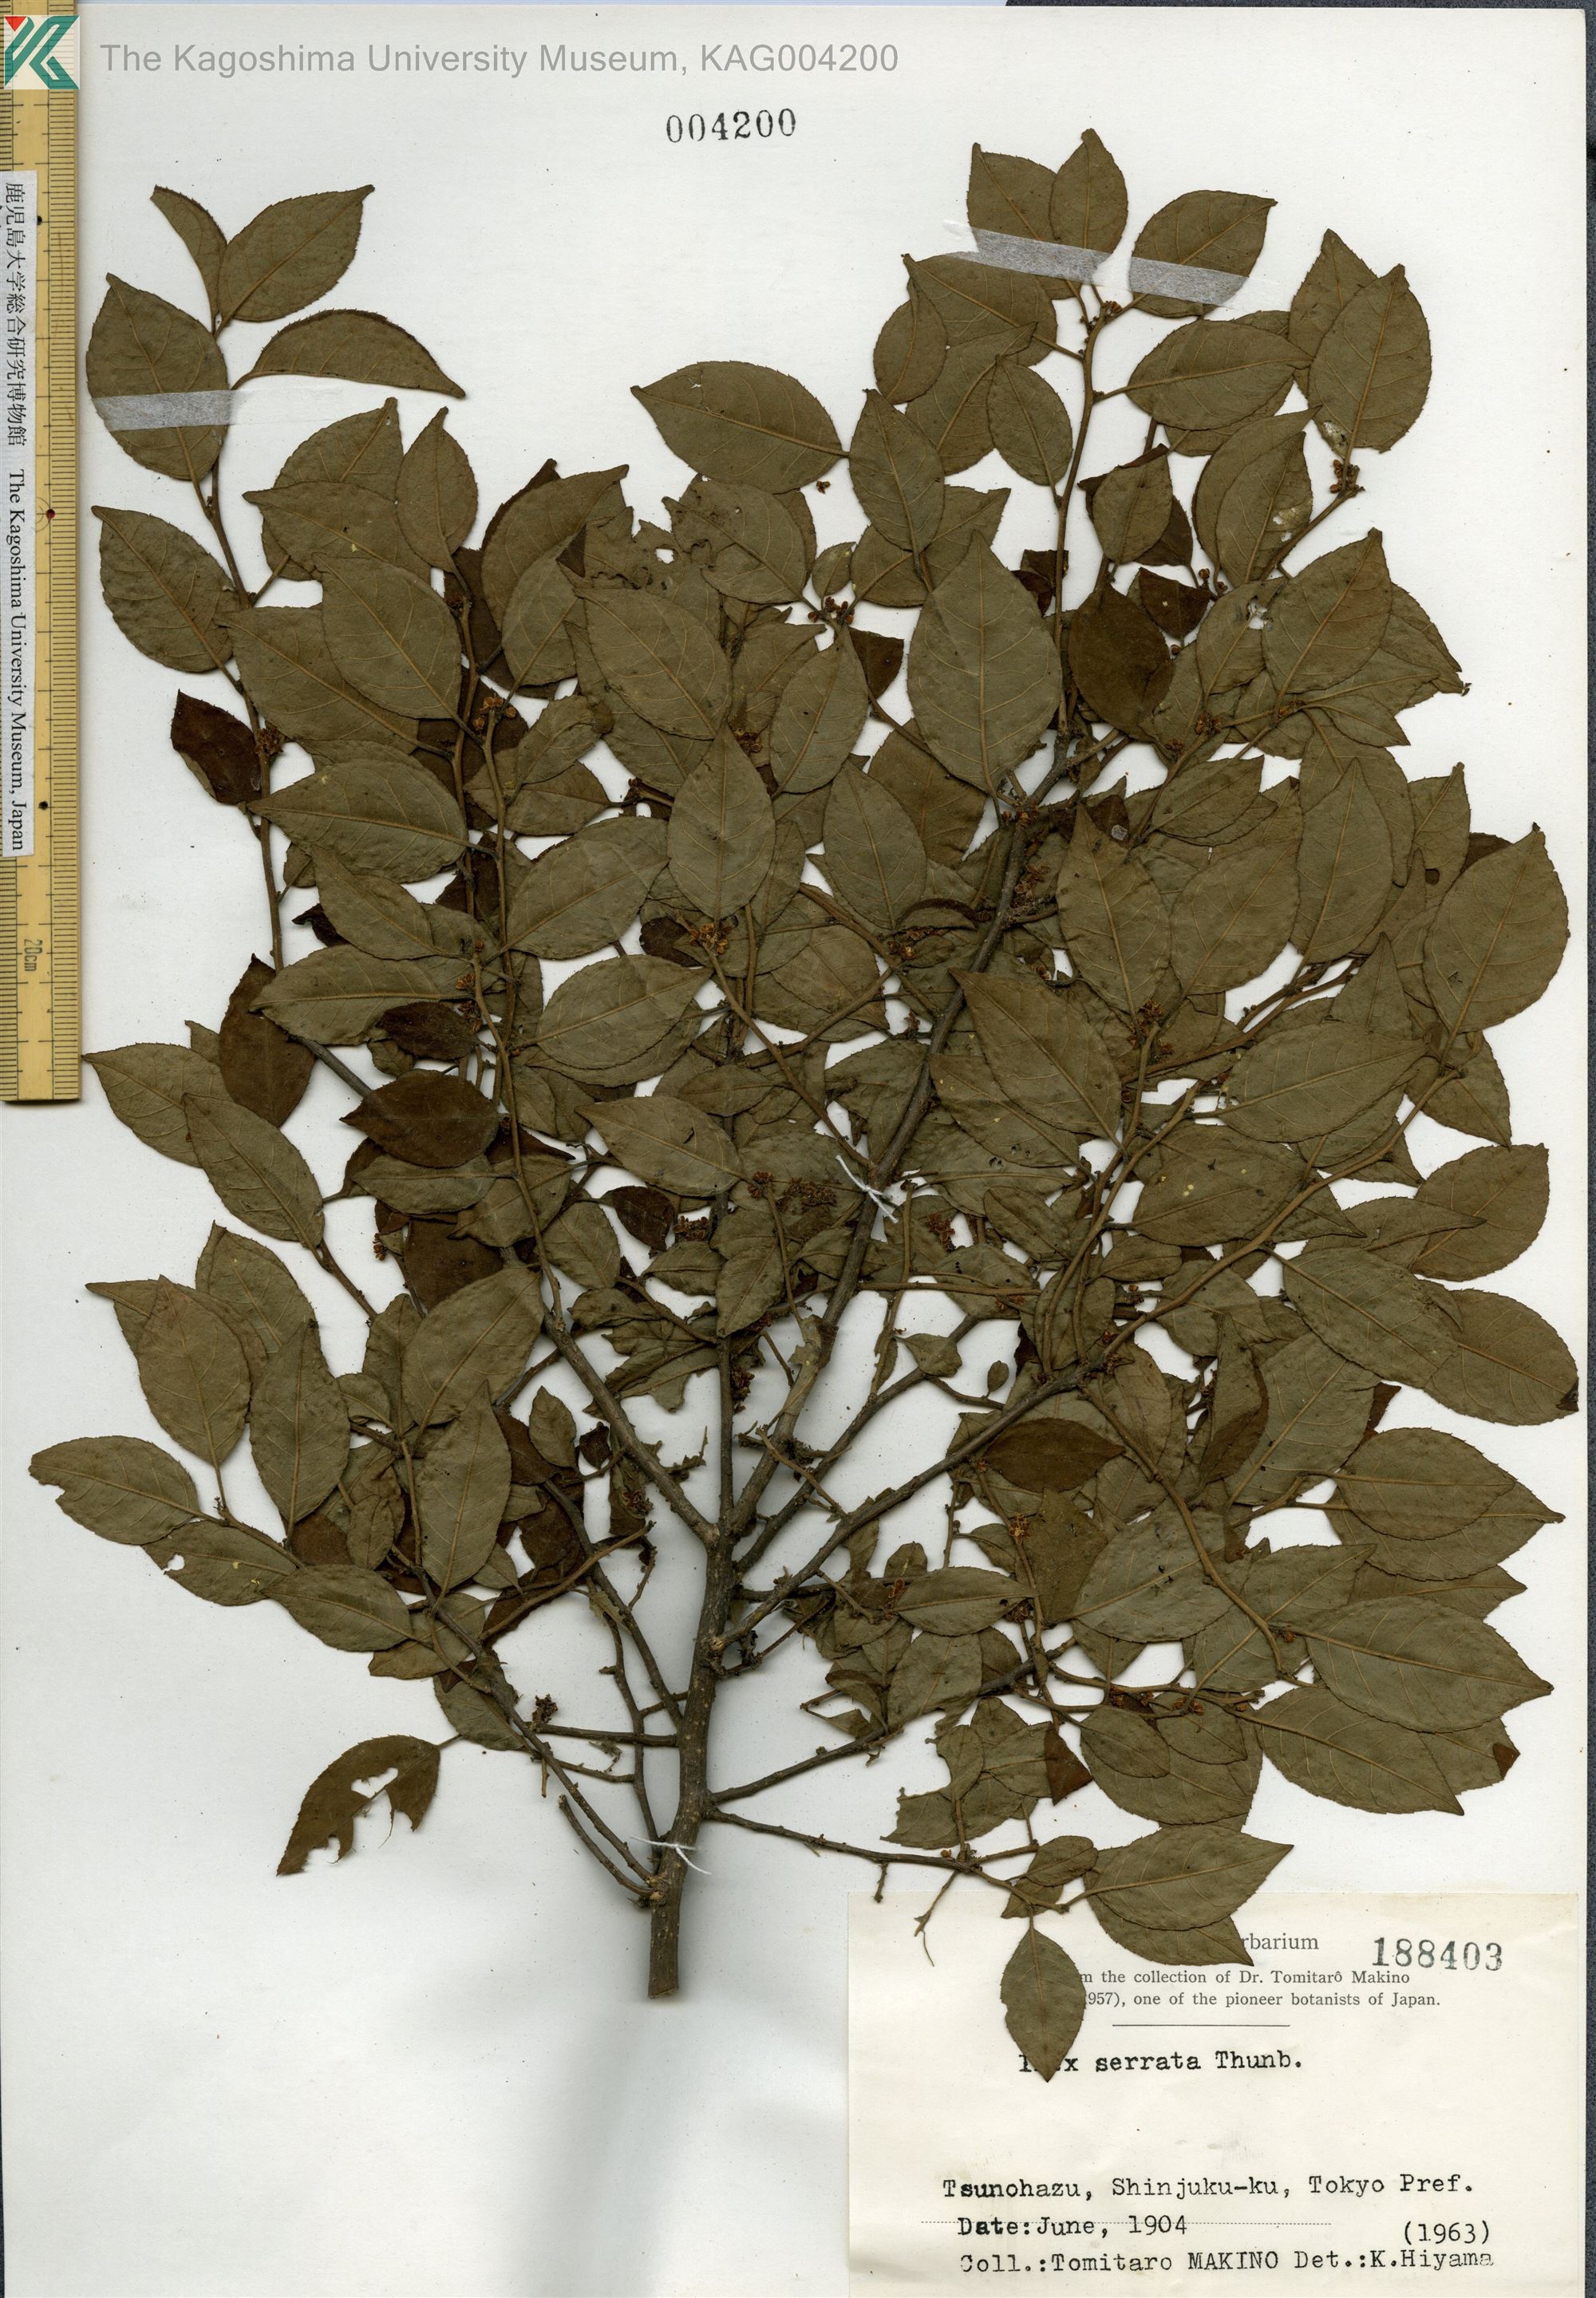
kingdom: Plantae
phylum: Tracheophyta
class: Magnoliopsida
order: Aquifoliales
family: Aquifoliaceae
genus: Ilex
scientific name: Ilex serrata
